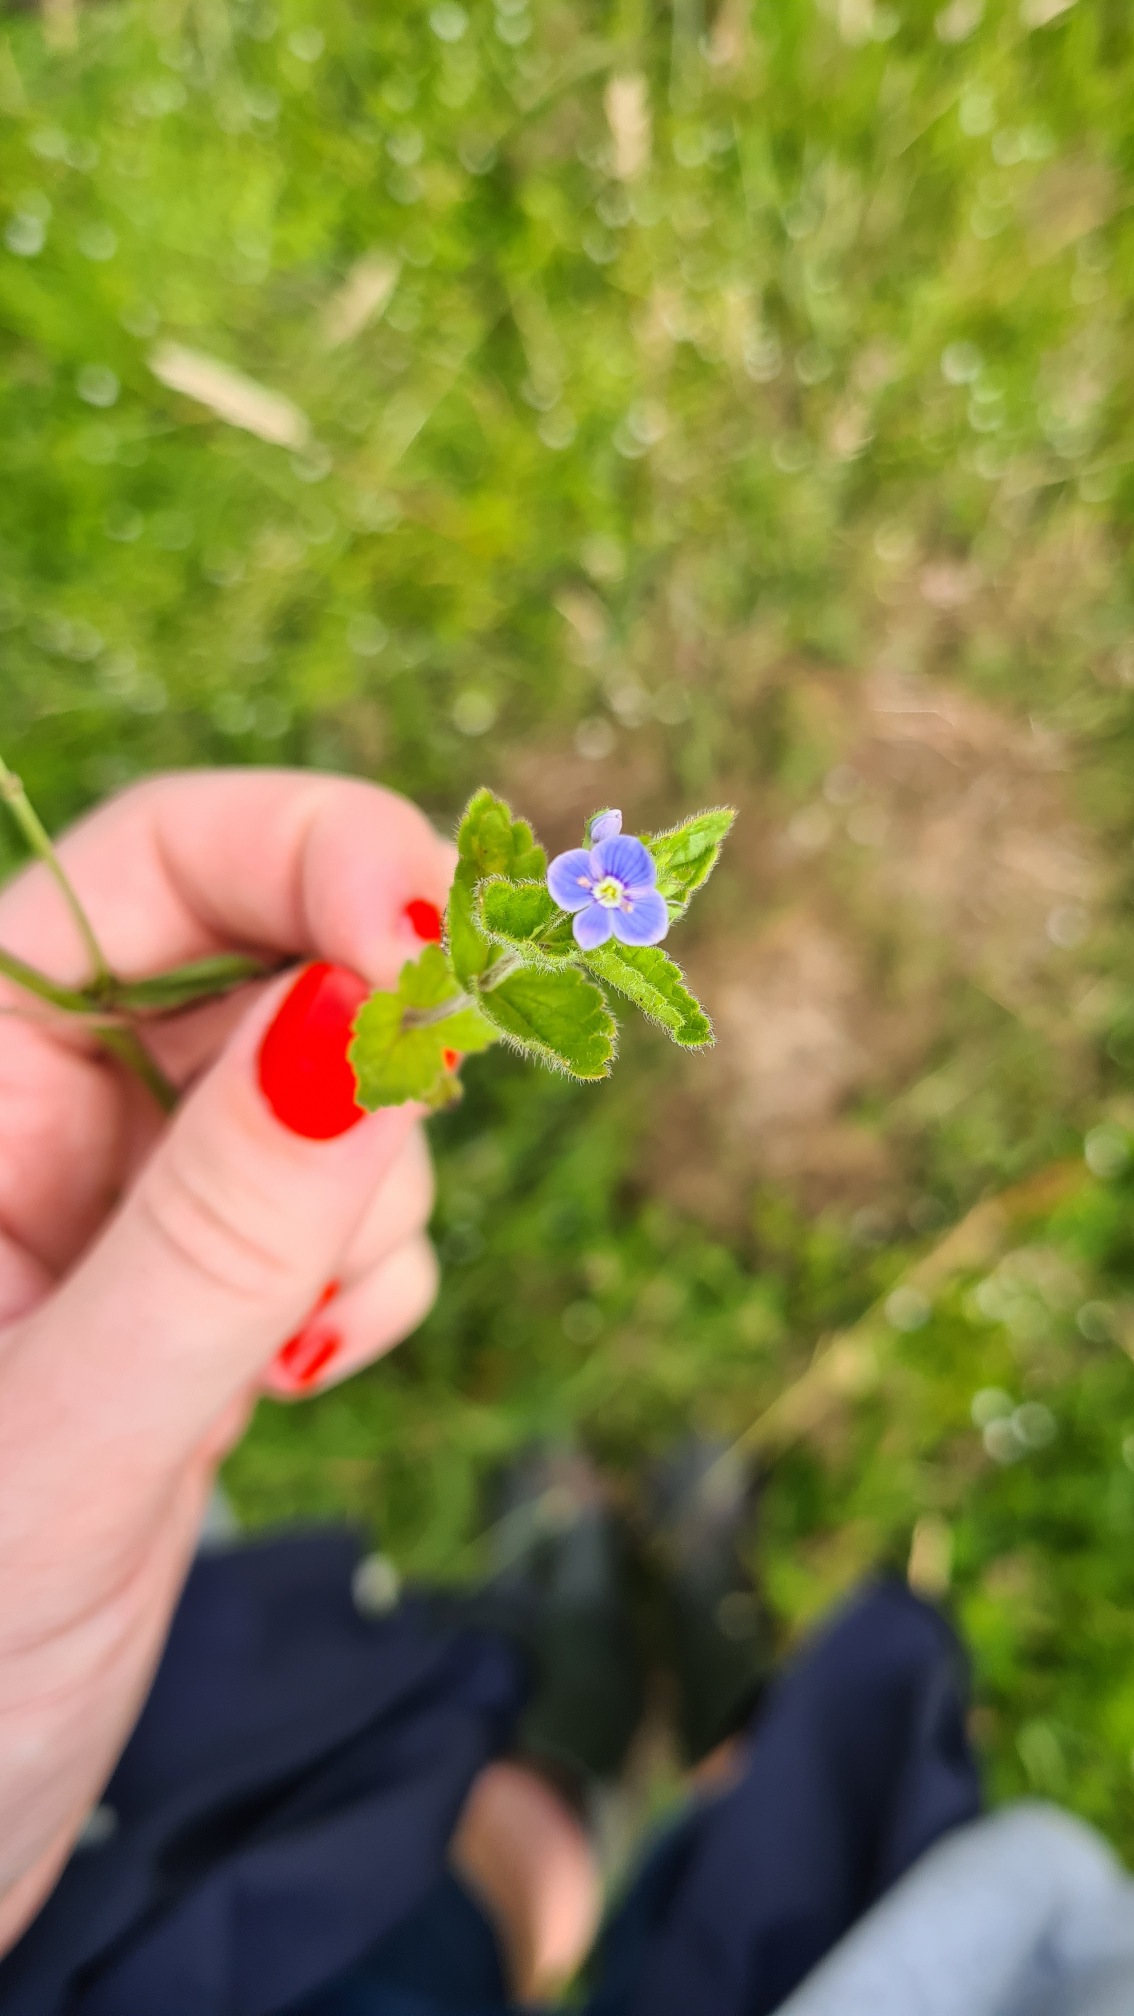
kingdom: Plantae
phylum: Tracheophyta
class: Magnoliopsida
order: Lamiales
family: Plantaginaceae
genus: Veronica
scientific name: Veronica chamaedrys
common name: Tveskægget ærenpris
